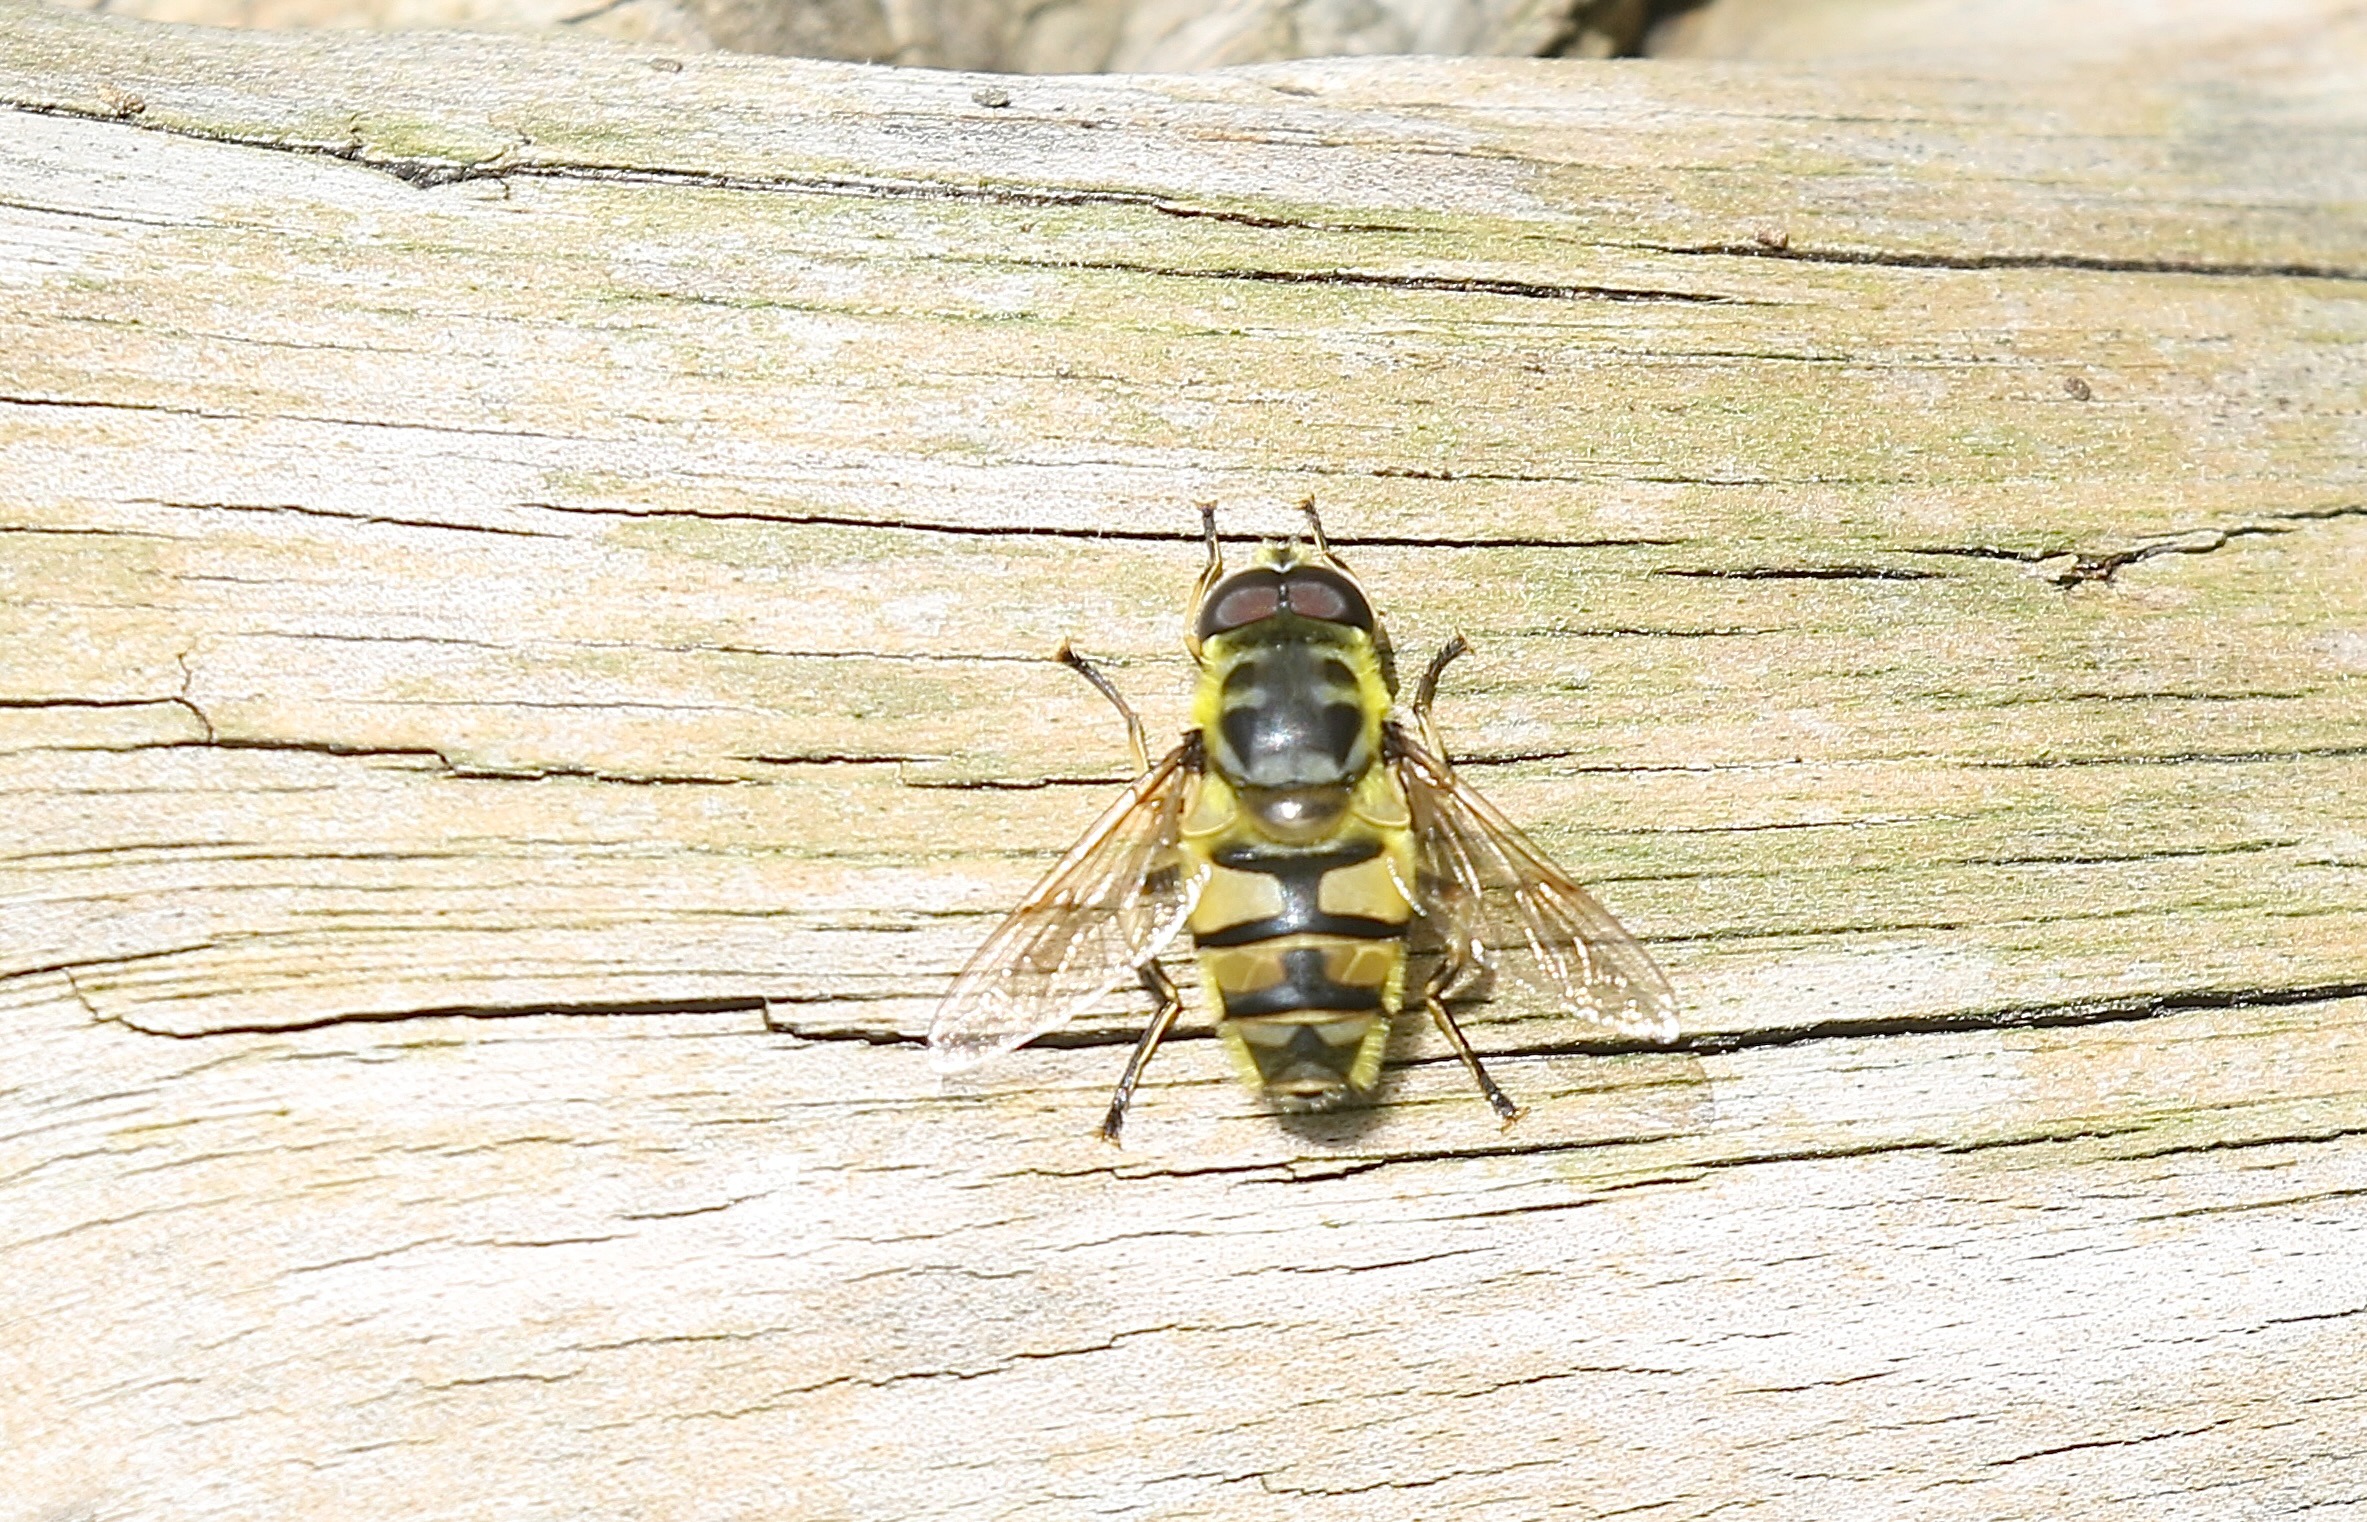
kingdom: Animalia
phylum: Arthropoda
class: Insecta
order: Diptera
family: Syrphidae
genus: Myathropa
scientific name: Myathropa florea
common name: Dødningehoved-svirreflue
